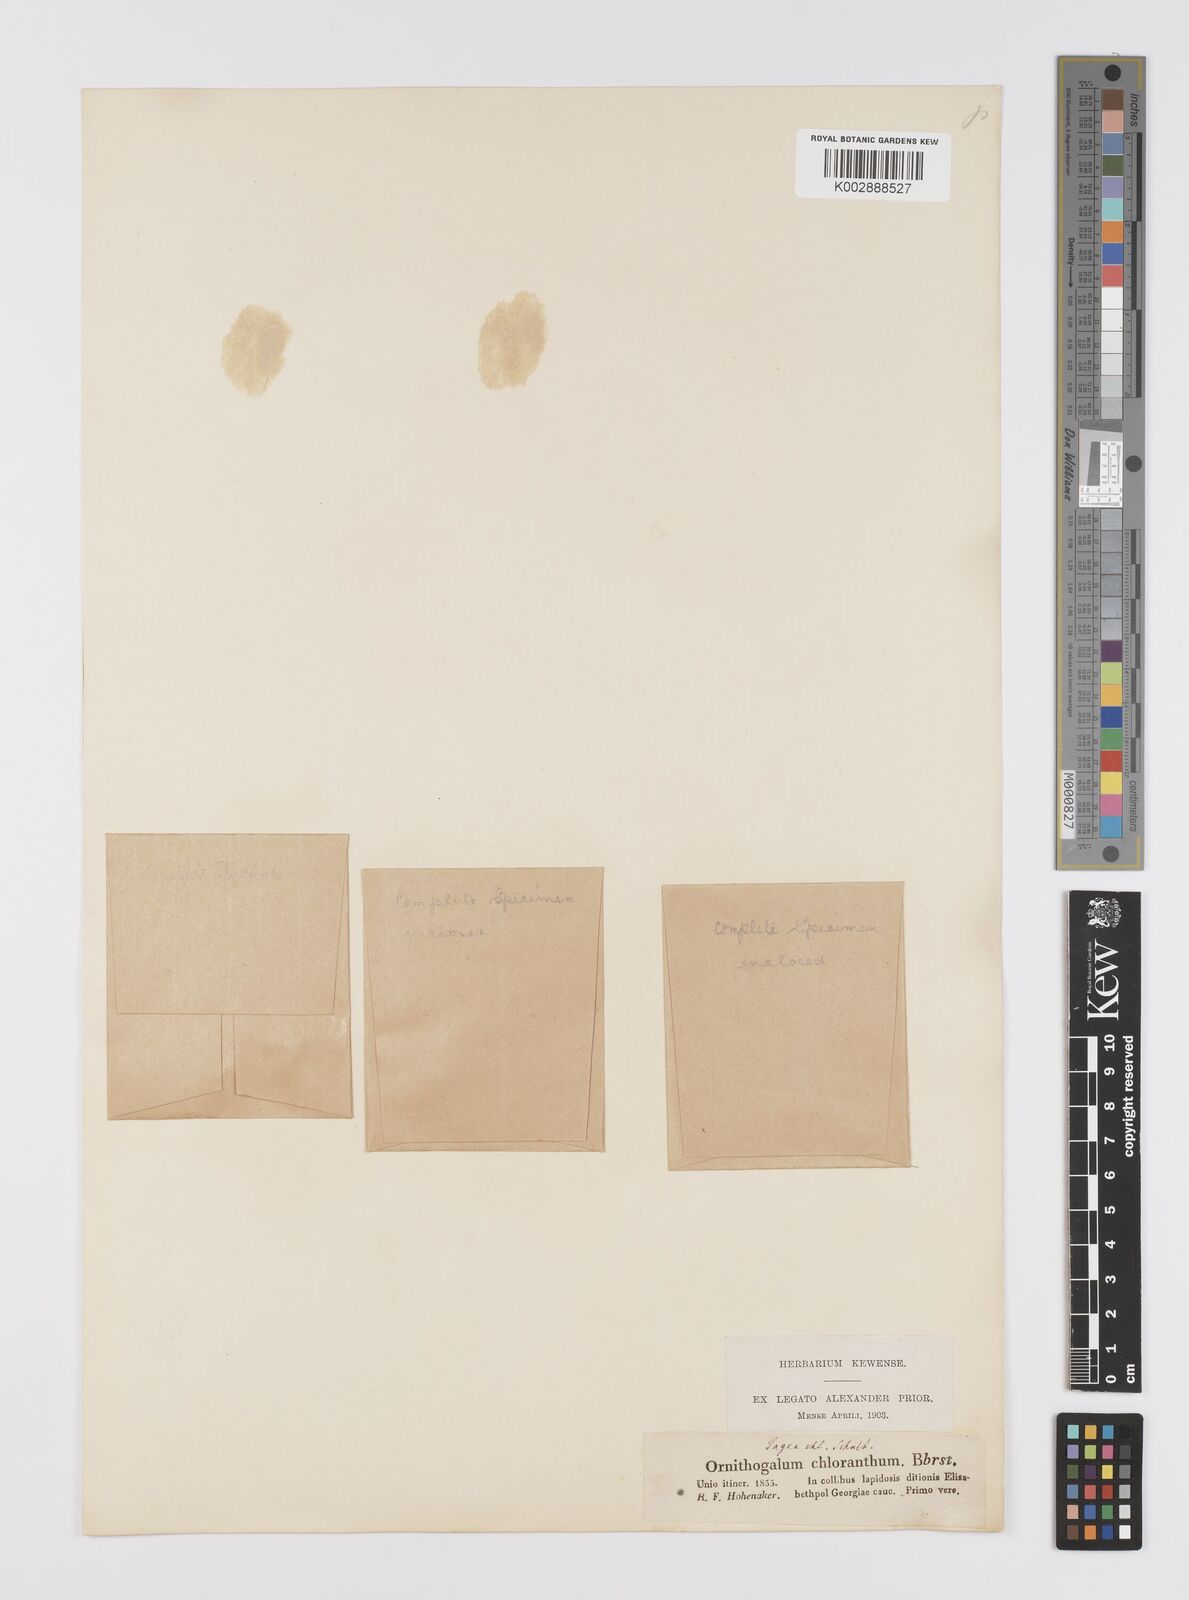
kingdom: Plantae
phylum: Tracheophyta
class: Liliopsida
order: Liliales
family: Liliaceae
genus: Gagea
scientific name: Gagea chlorantha
